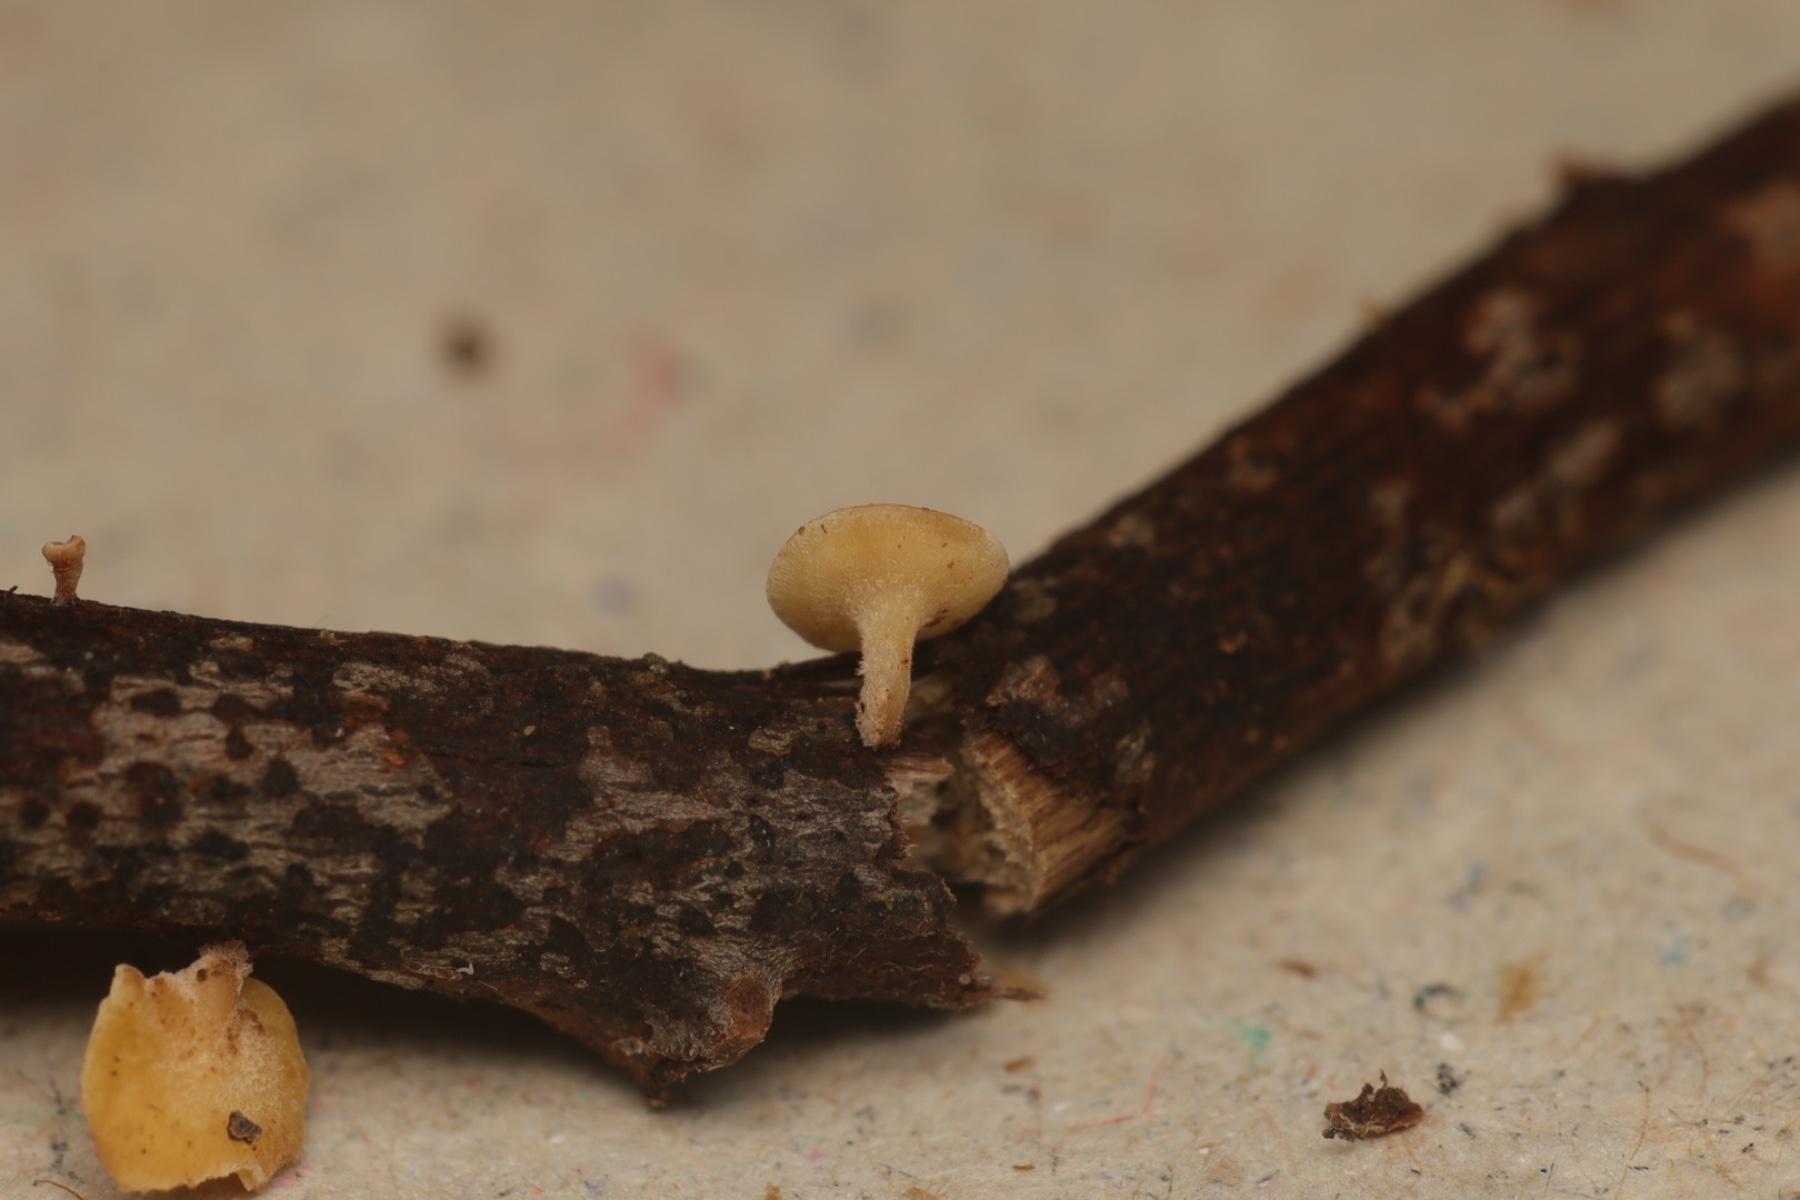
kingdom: Fungi
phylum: Ascomycota
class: Leotiomycetes
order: Helotiales
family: Helotiaceae
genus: Hymenoscyphus
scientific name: Hymenoscyphus
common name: stilkskive
